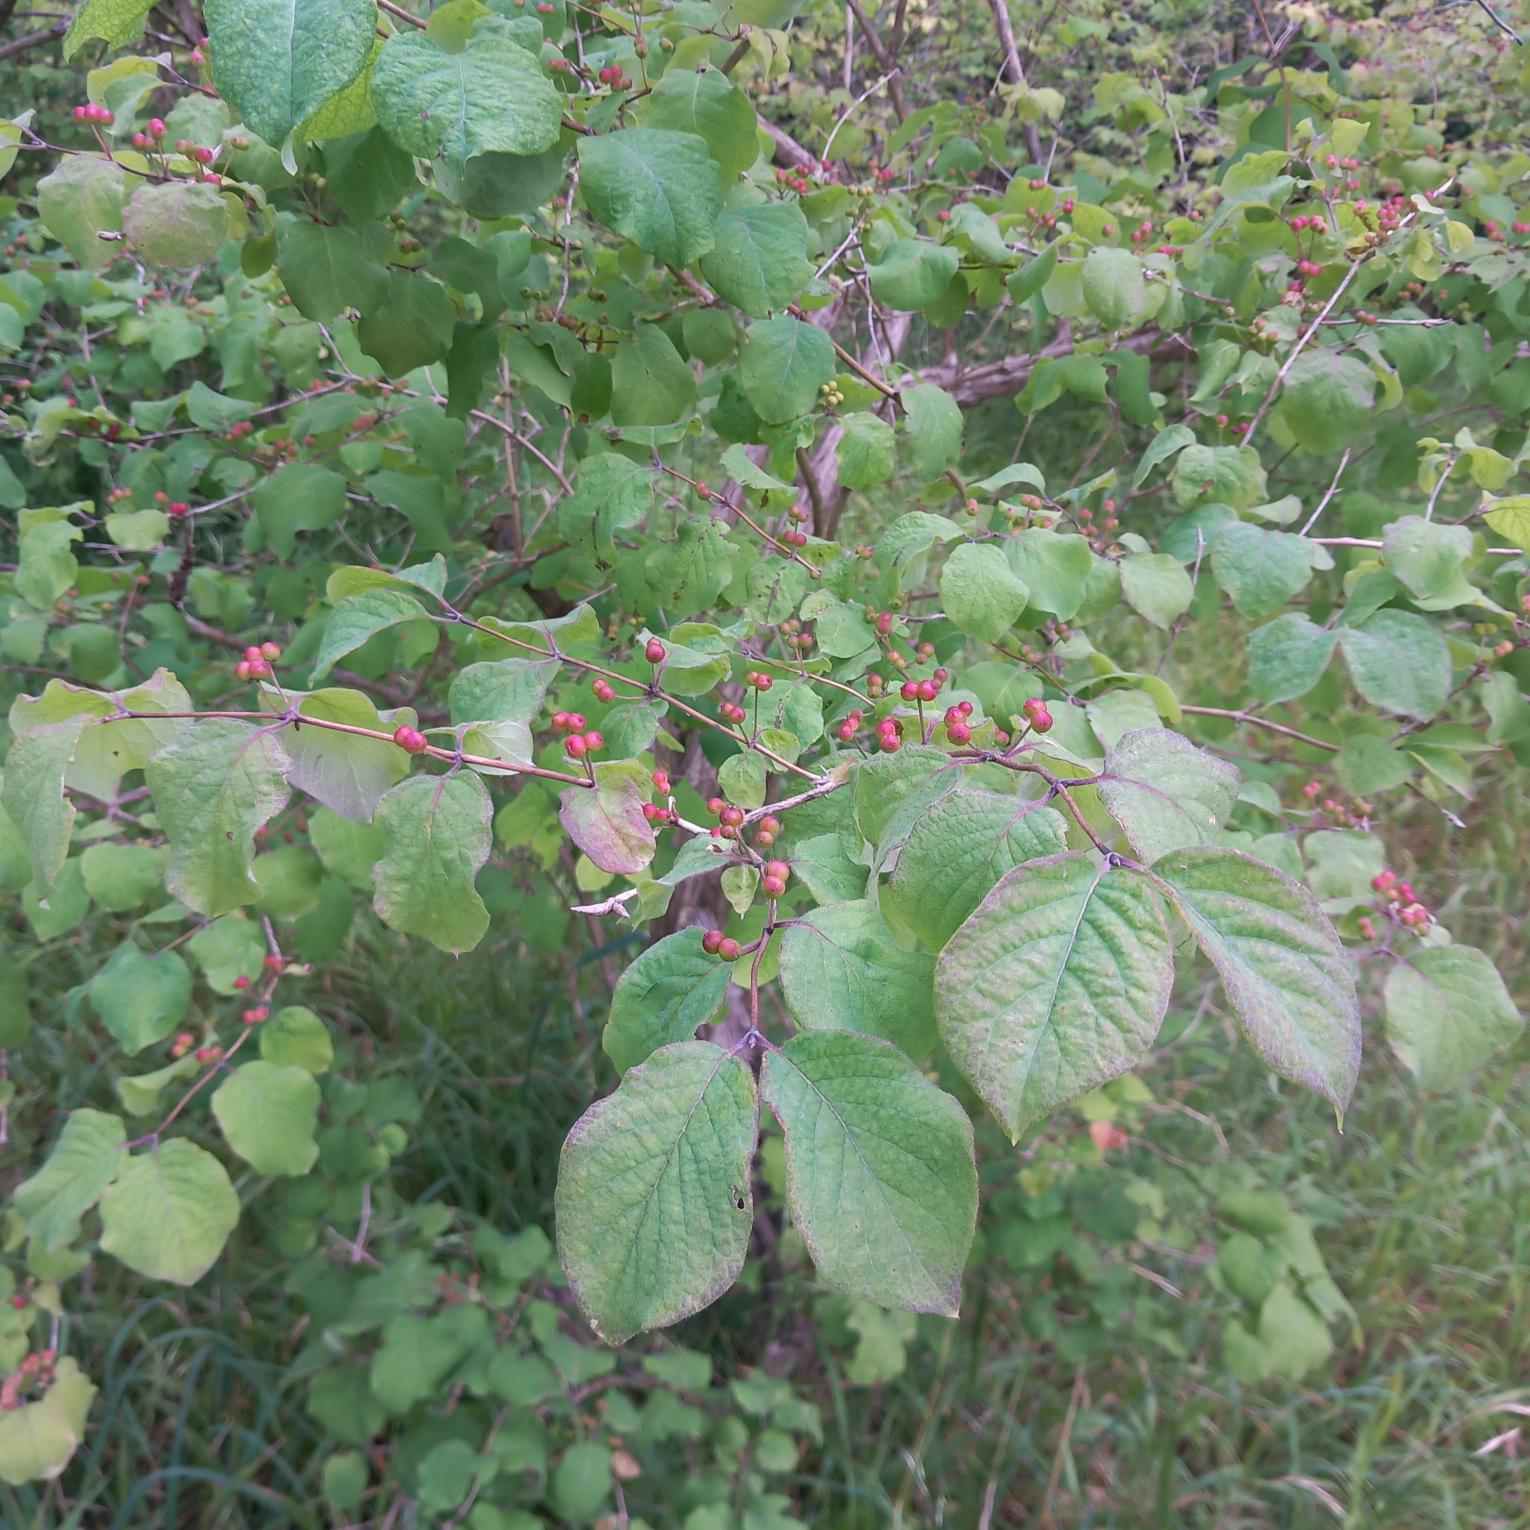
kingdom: Plantae
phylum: Tracheophyta
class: Magnoliopsida
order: Dipsacales
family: Caprifoliaceae
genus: Lonicera
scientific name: Lonicera xylosteum
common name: Dunet gedeblad
